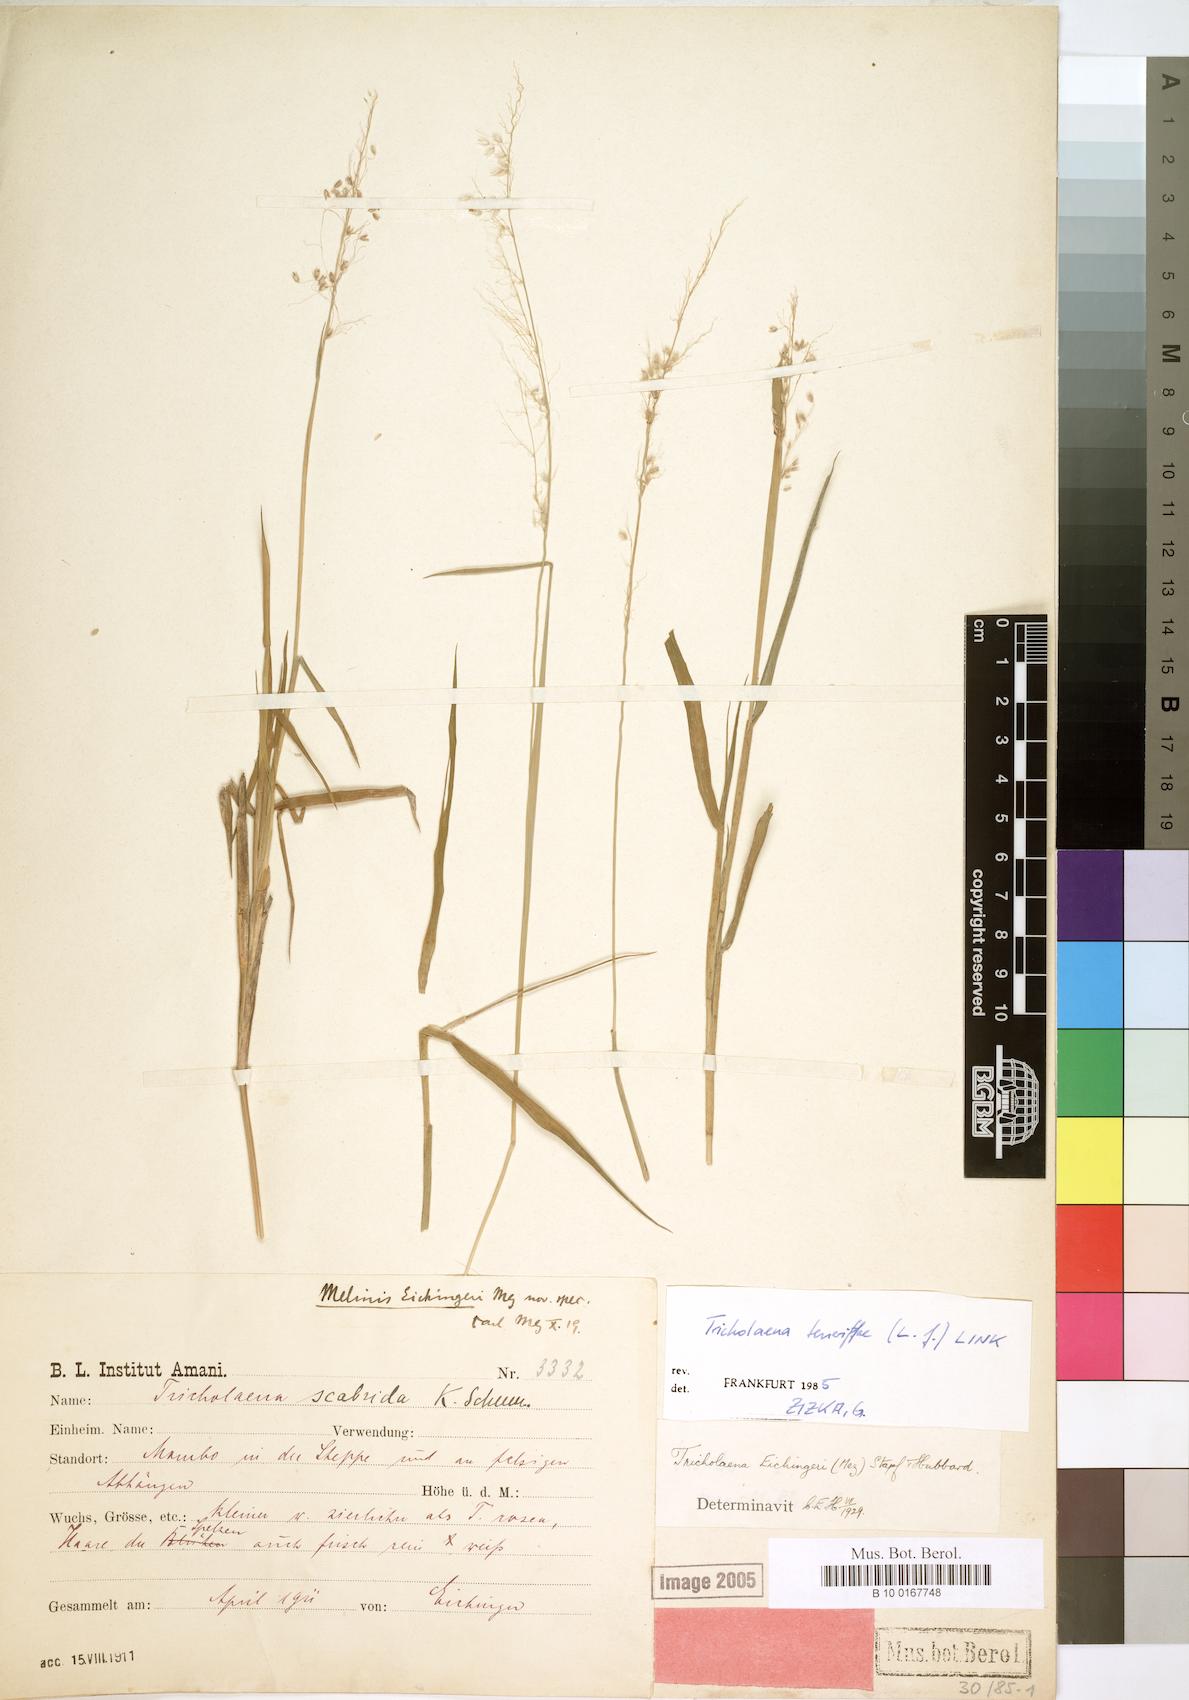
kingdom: Plantae
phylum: Tracheophyta
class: Liliopsida
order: Poales
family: Poaceae
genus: Tricholaena
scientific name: Tricholaena teneriffae
